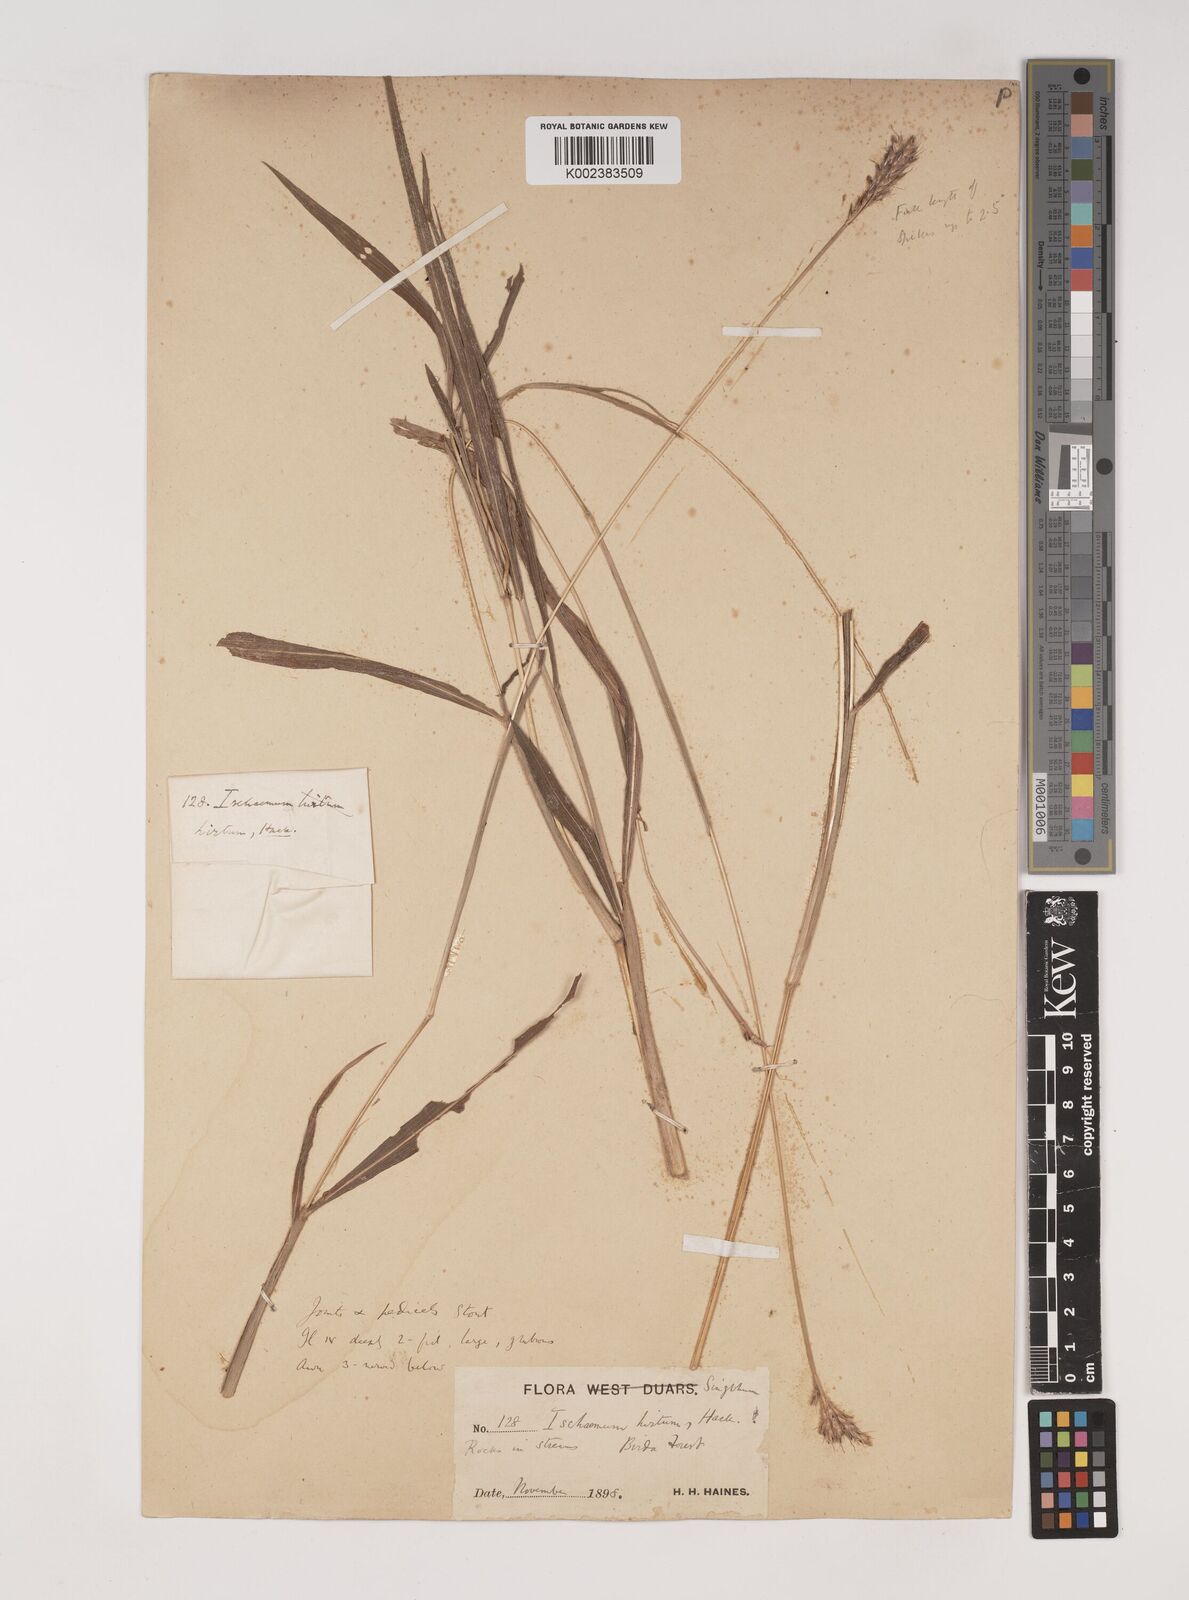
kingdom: Plantae
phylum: Tracheophyta
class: Liliopsida
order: Poales
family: Poaceae
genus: Ischaemum
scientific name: Ischaemum
